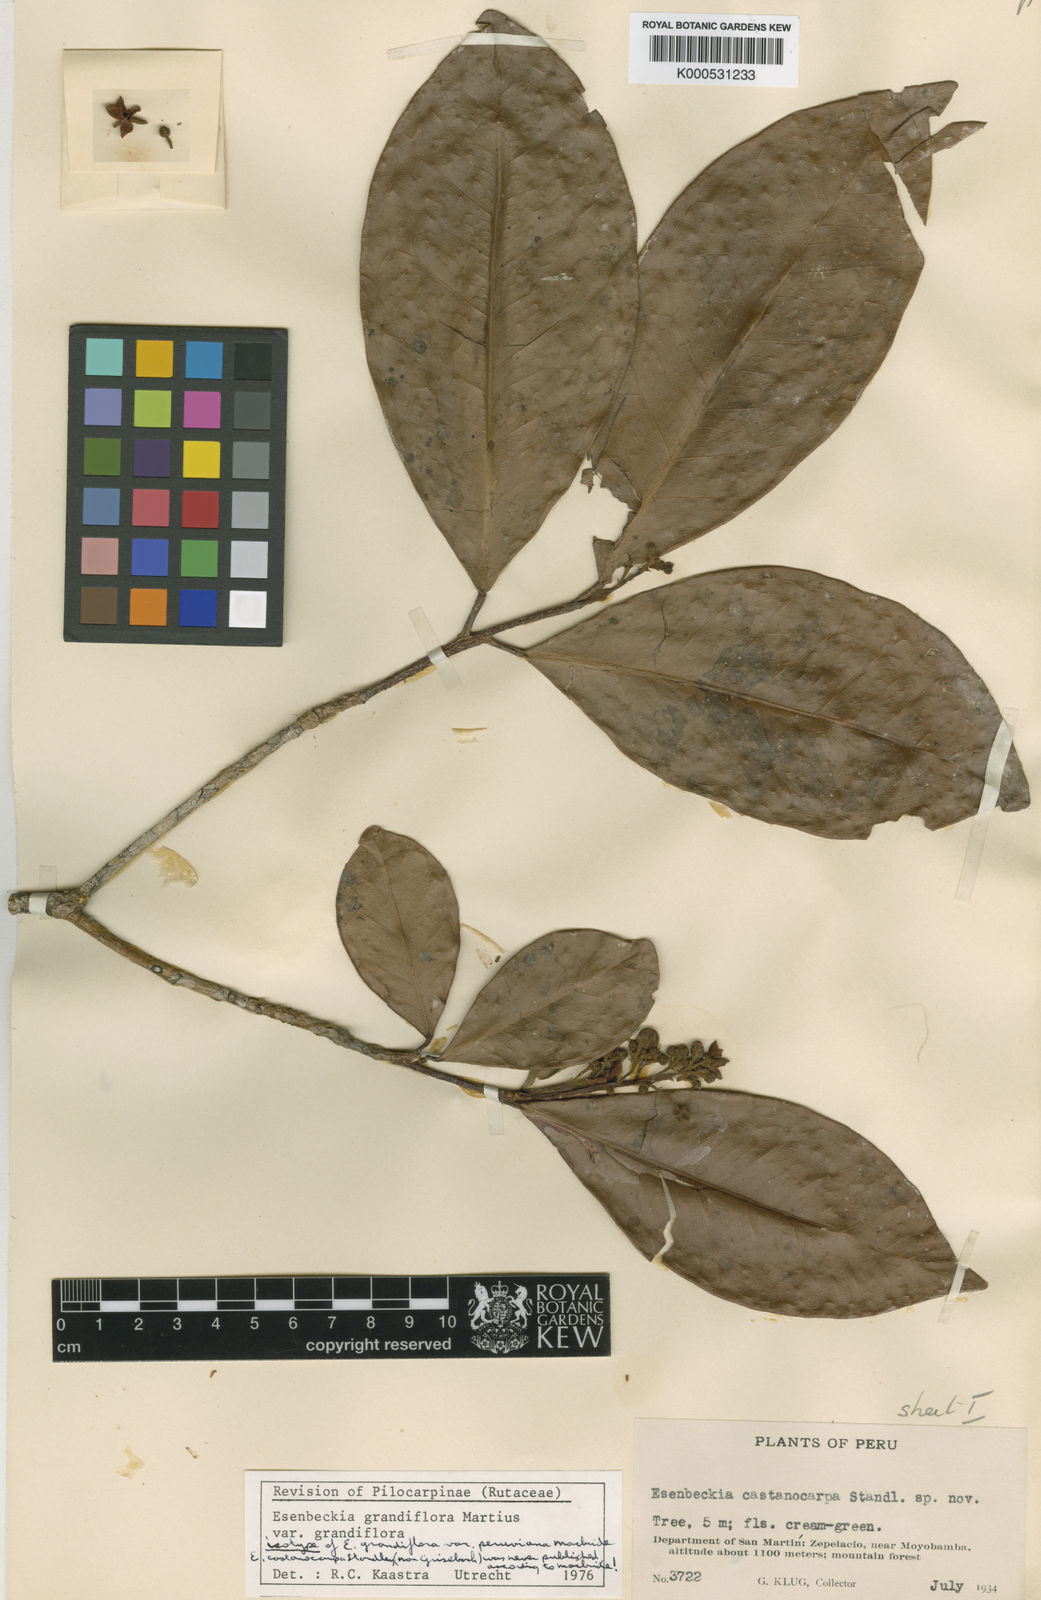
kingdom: Plantae
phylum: Tracheophyta
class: Magnoliopsida
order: Sapindales
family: Rutaceae
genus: Esenbeckia
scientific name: Esenbeckia grandiflora
